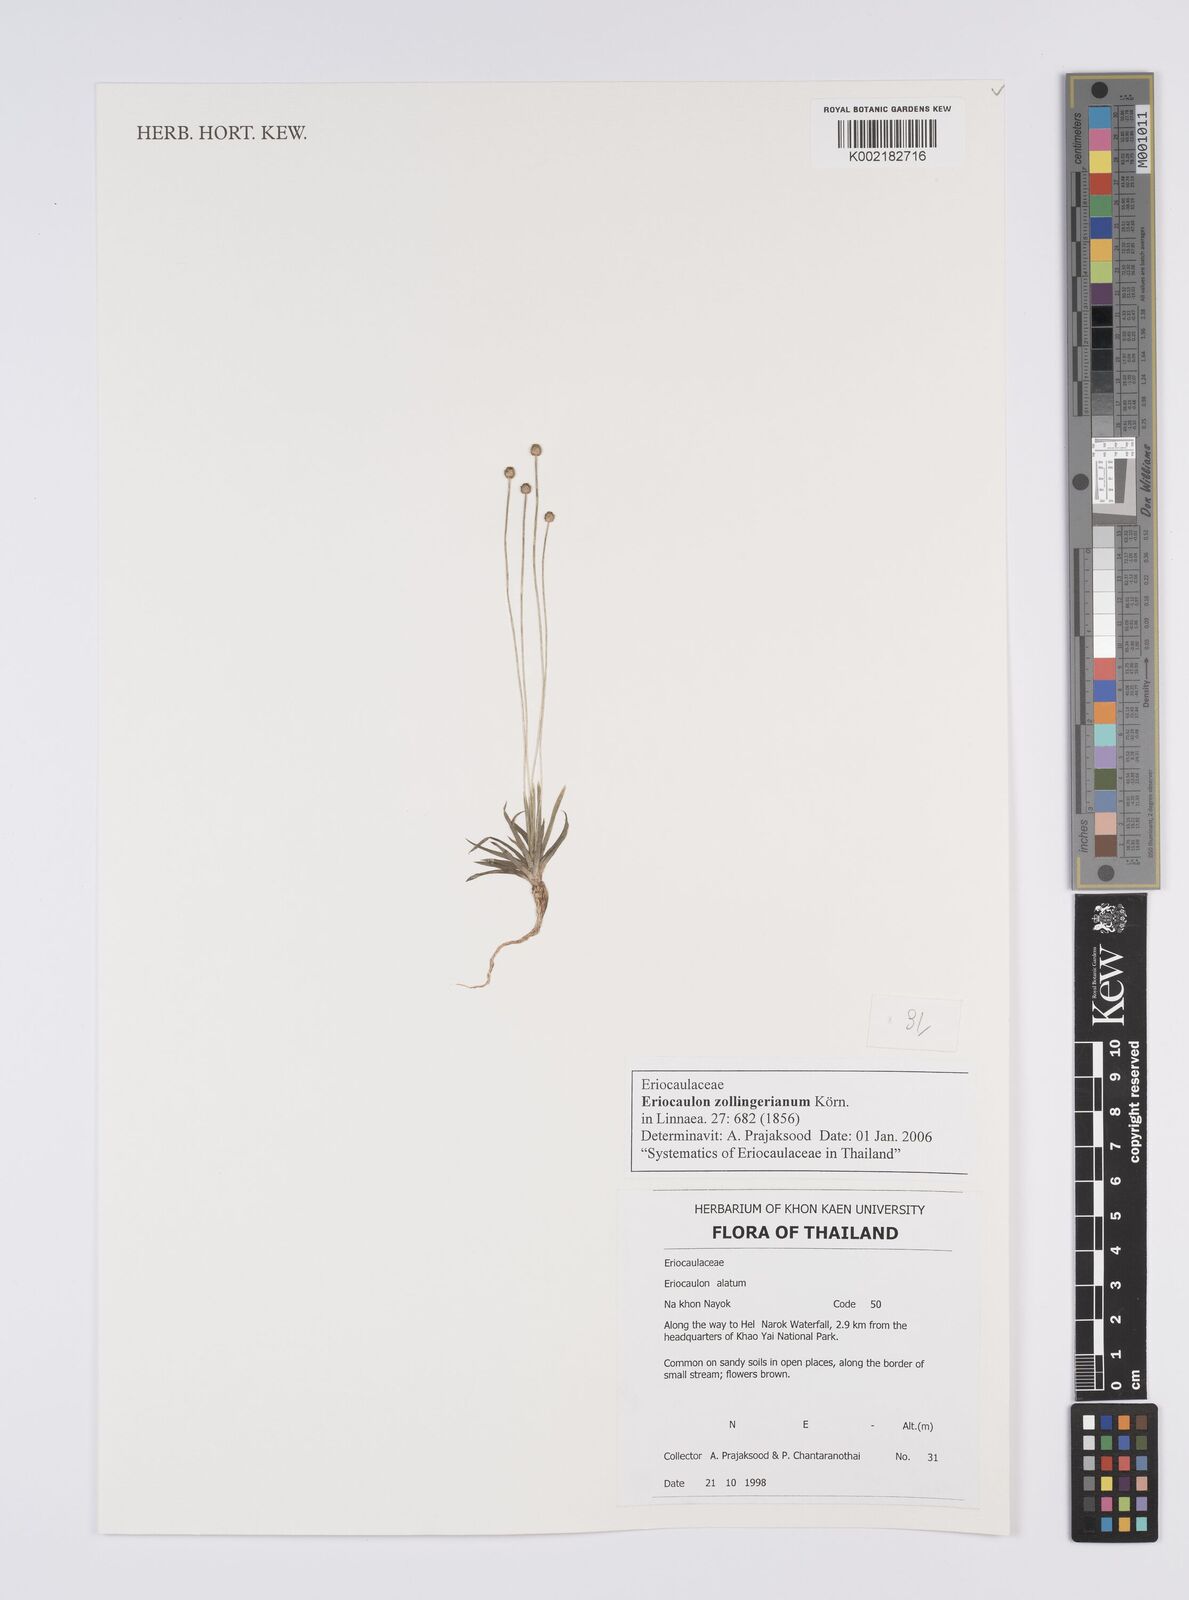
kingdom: Plantae
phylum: Tracheophyta
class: Liliopsida
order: Poales
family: Eriocaulaceae
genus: Eriocaulon
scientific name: Eriocaulon zollingerianum
